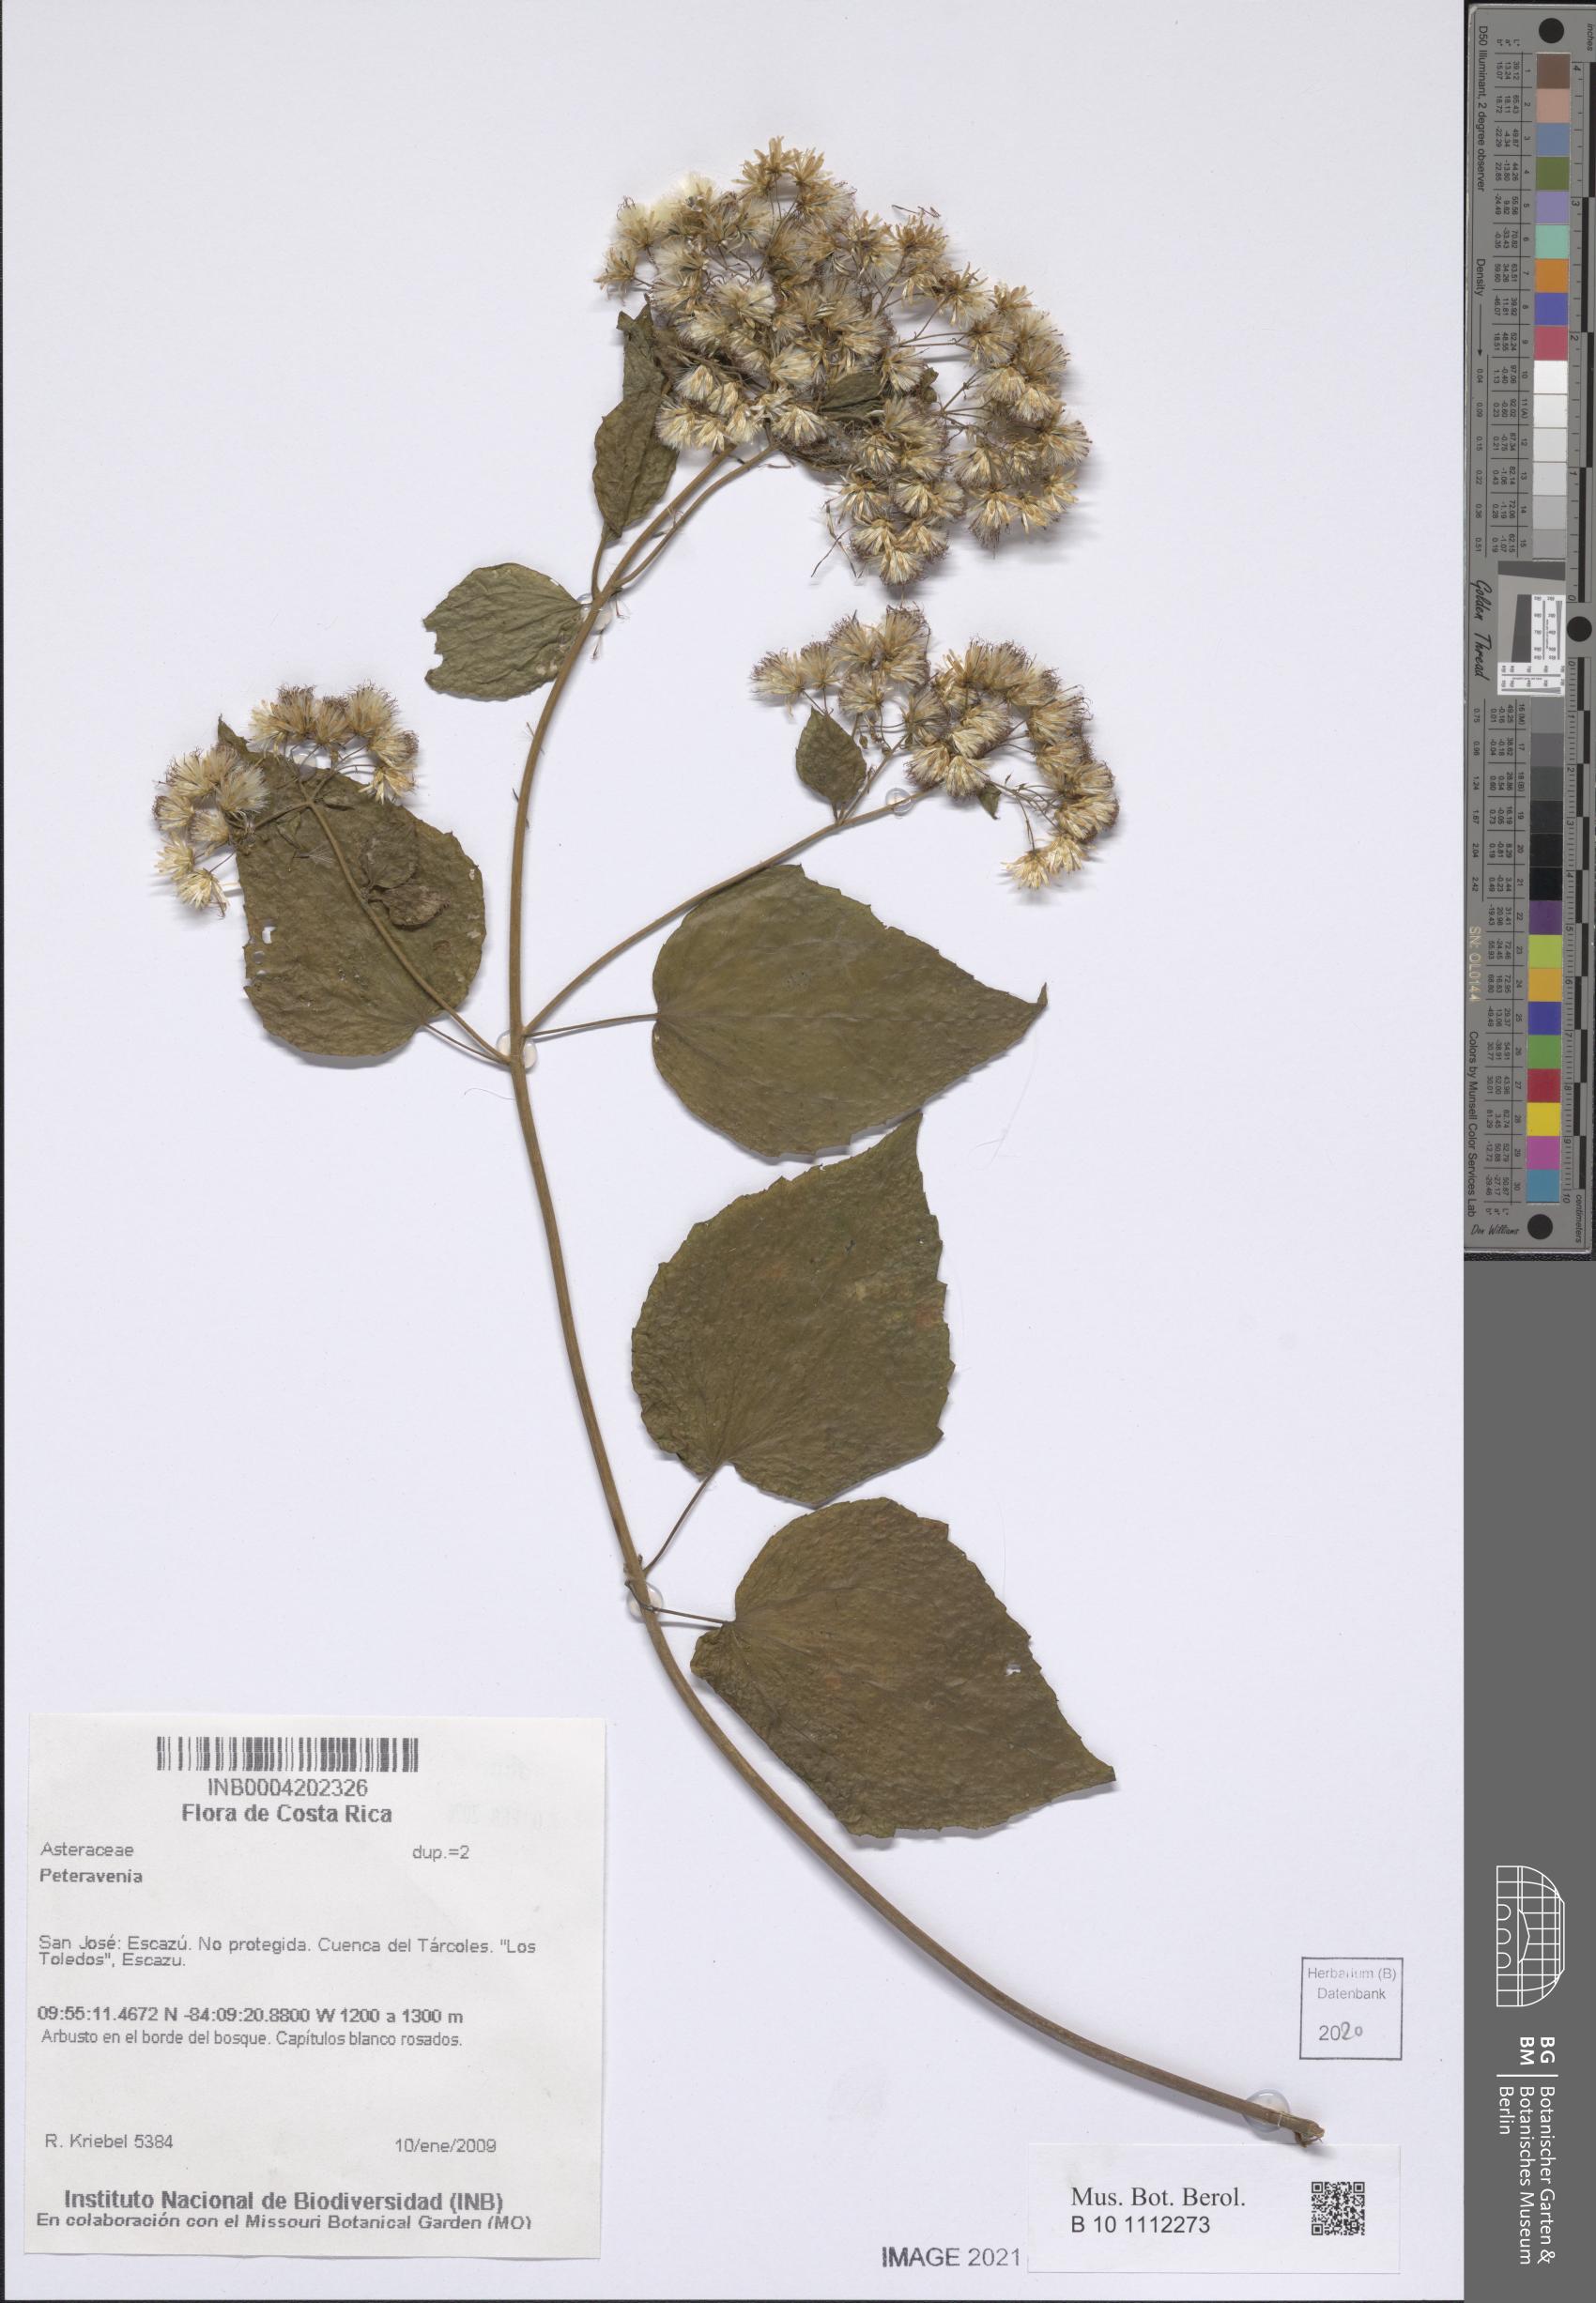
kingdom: Plantae
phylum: Tracheophyta
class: Magnoliopsida
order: Asterales
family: Asteraceae
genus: Peteravenia
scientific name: Peteravenia
